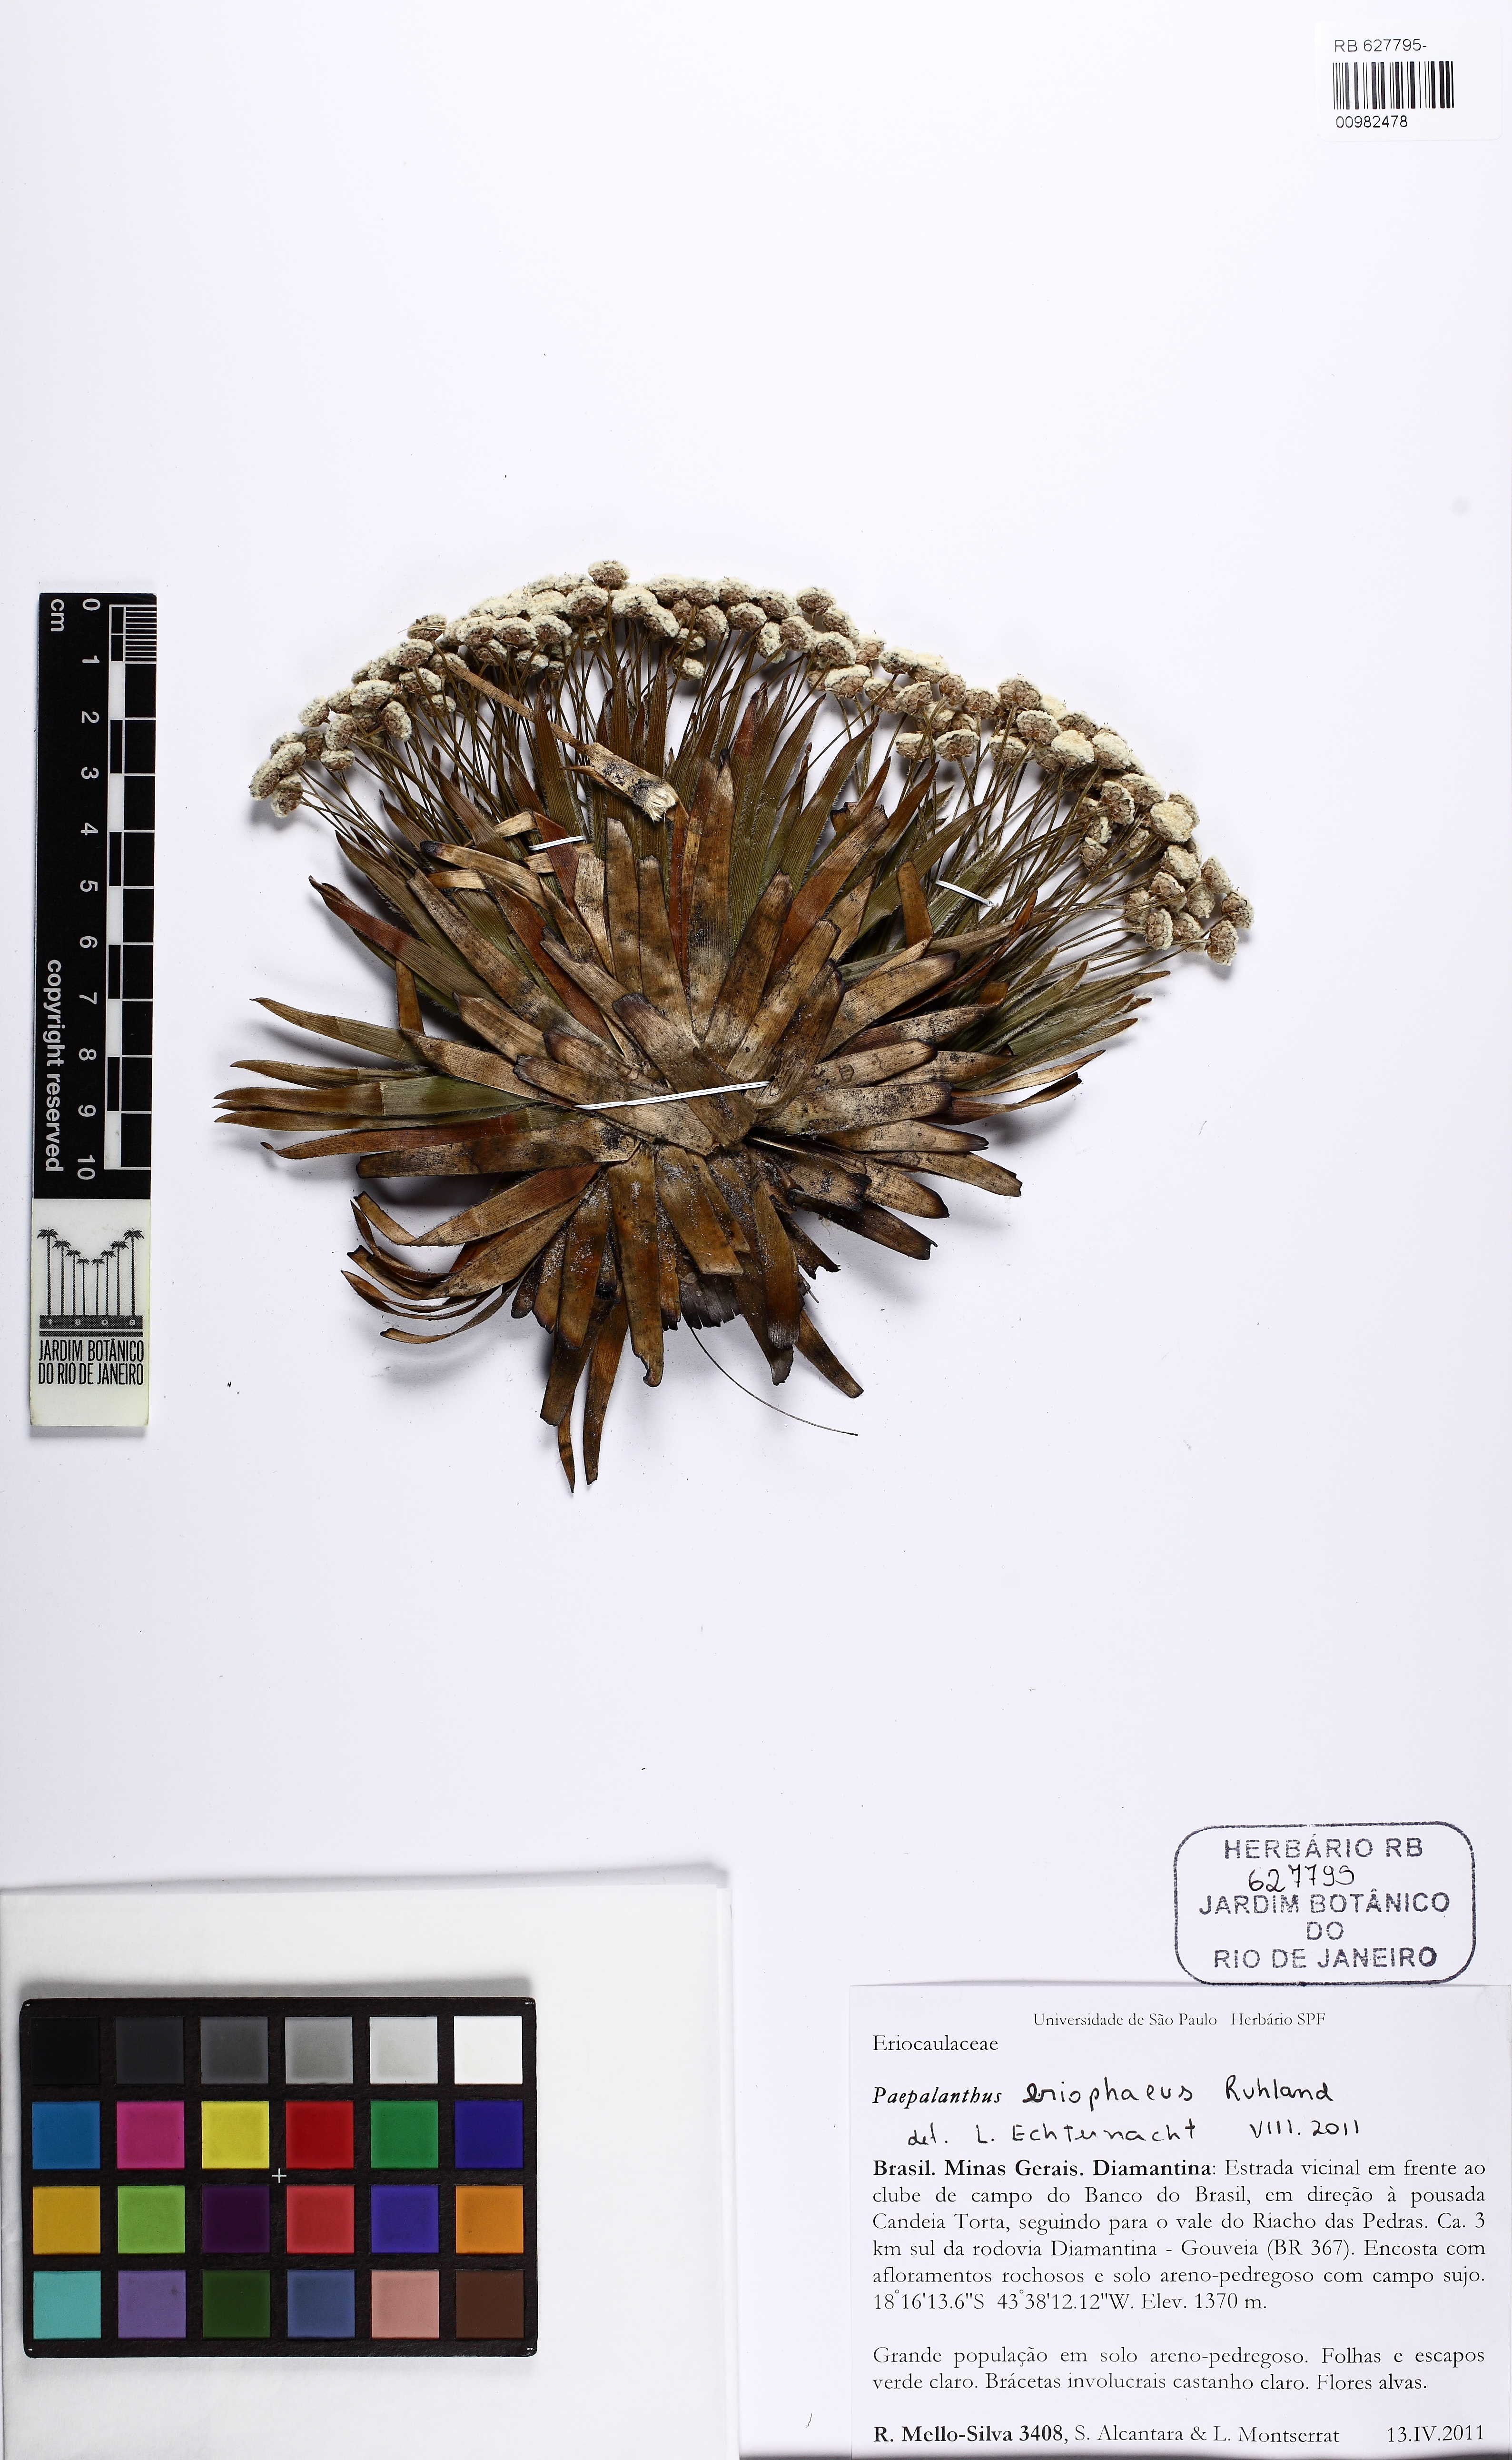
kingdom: Plantae
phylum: Tracheophyta
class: Liliopsida
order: Poales
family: Eriocaulaceae
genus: Paepalanthus
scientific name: Paepalanthus eriophaeus
